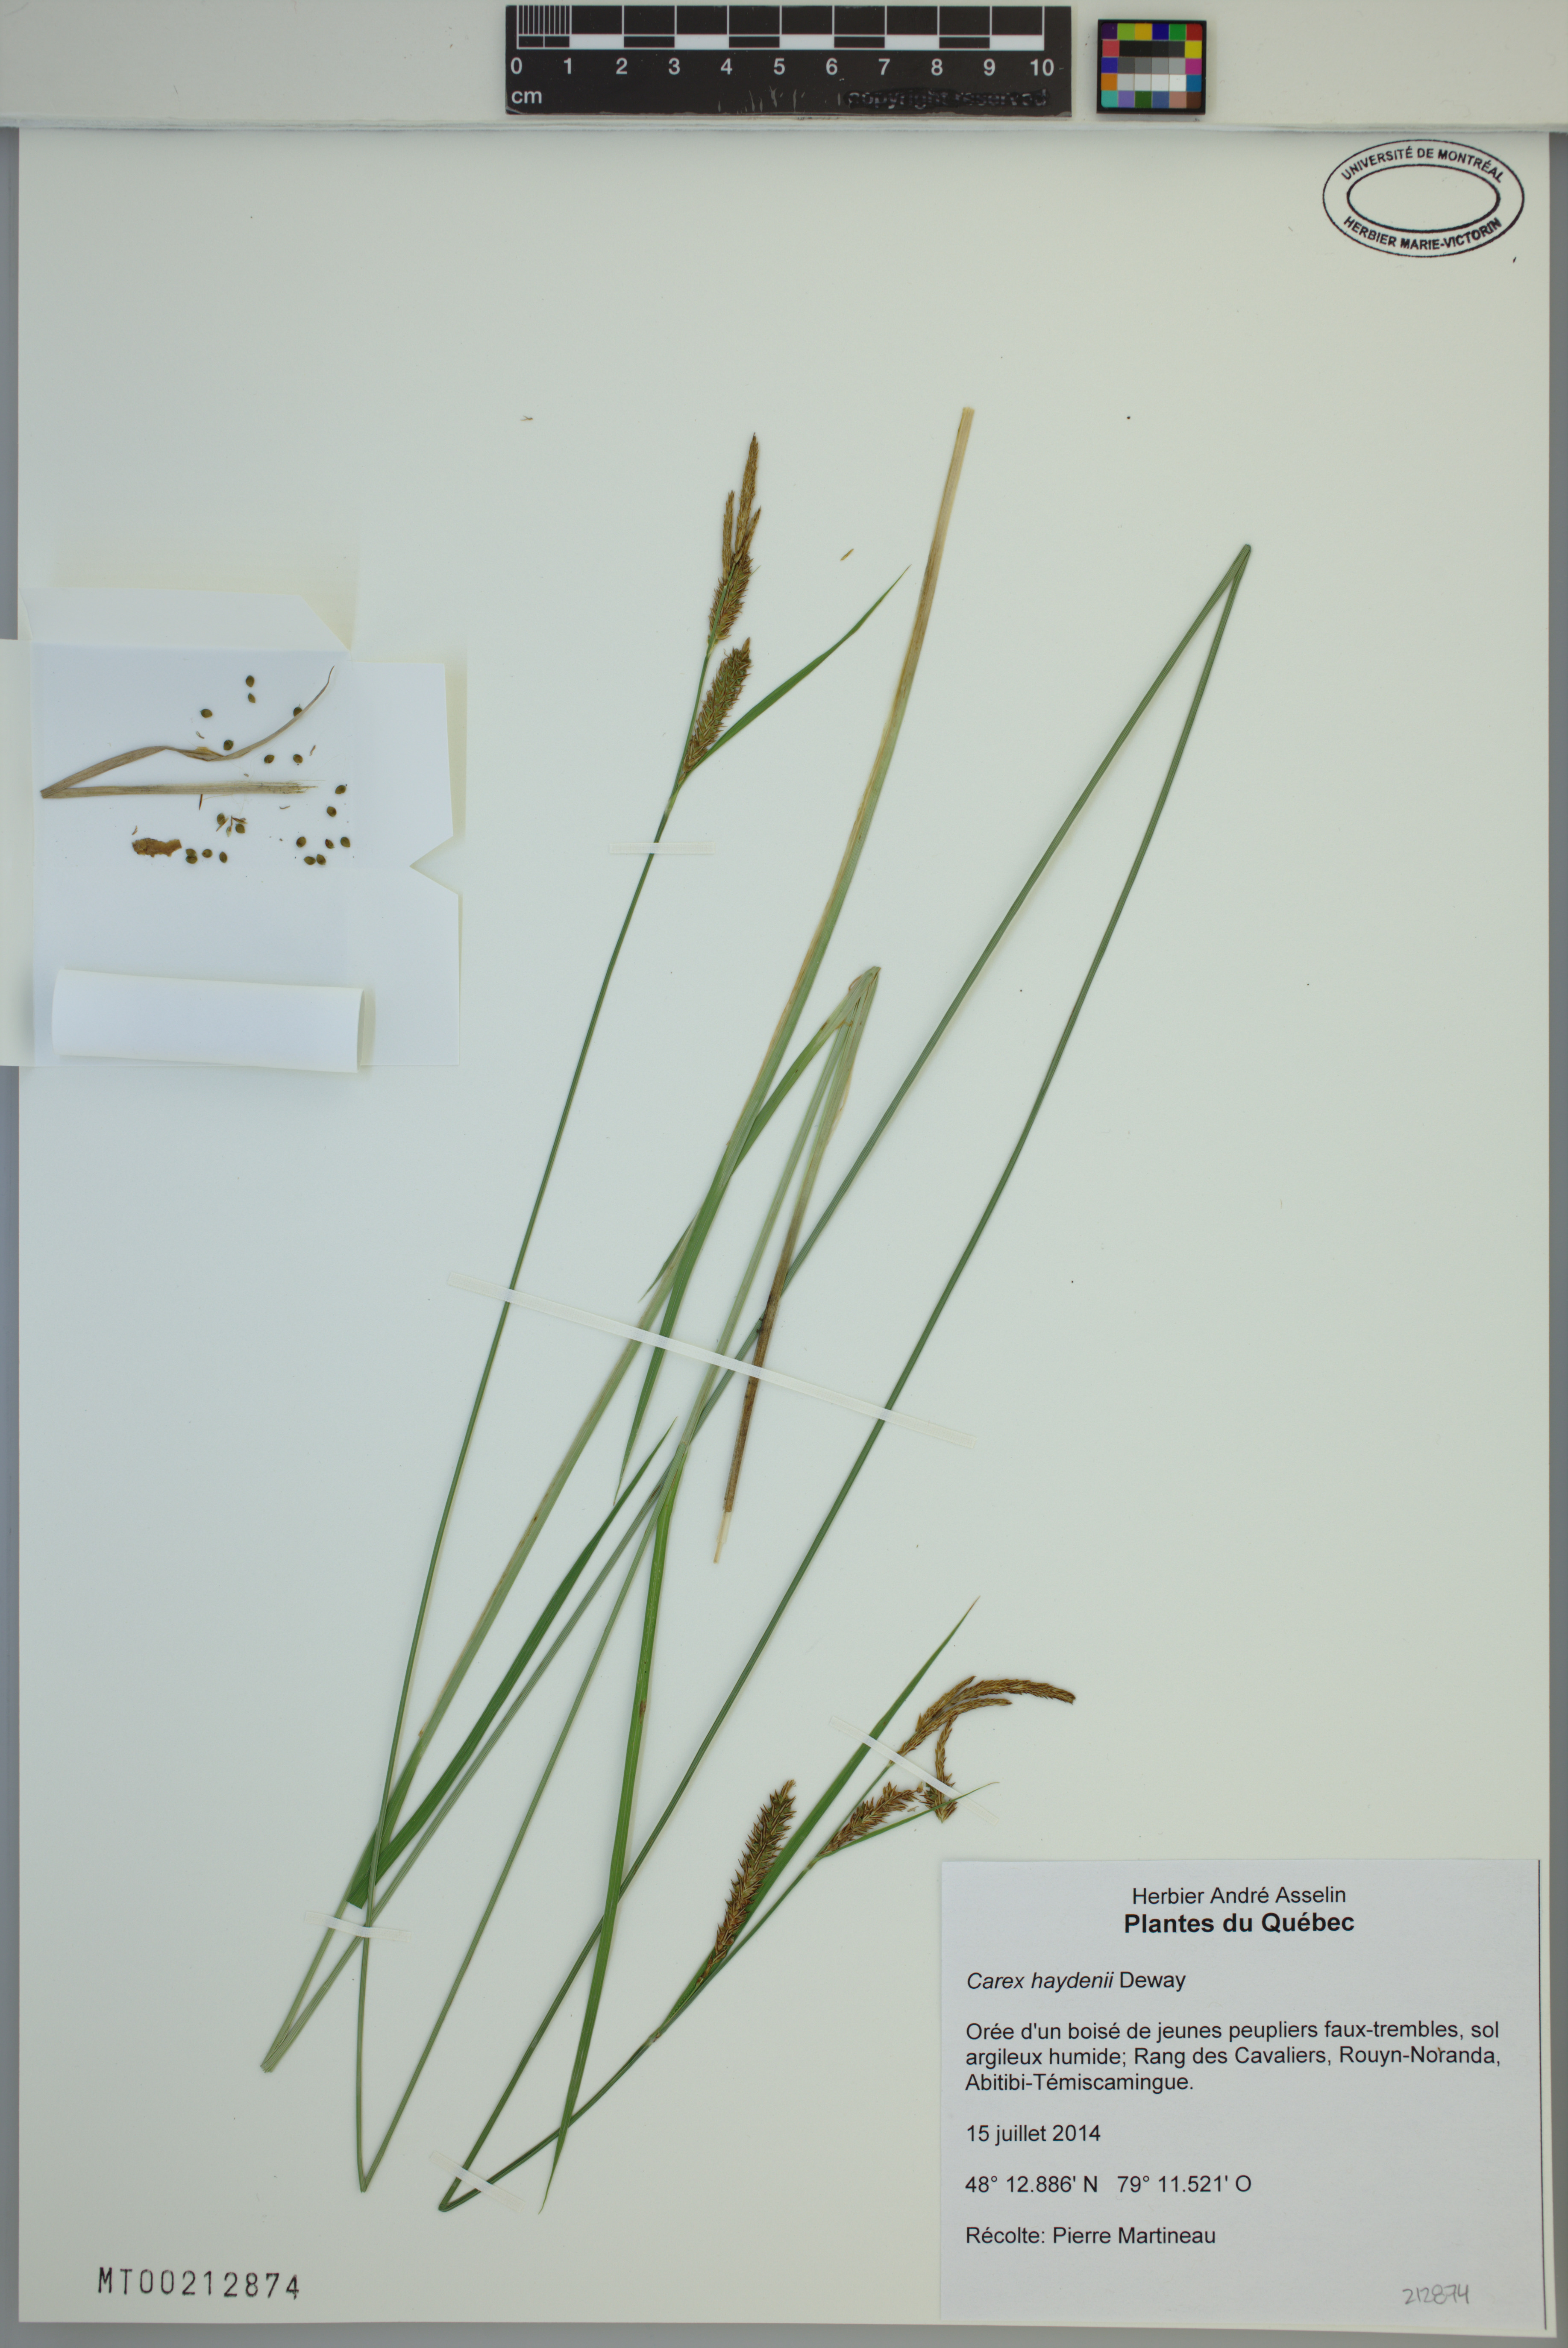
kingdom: Plantae
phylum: Tracheophyta
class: Liliopsida
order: Poales
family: Cyperaceae
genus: Carex
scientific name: Carex haydenii
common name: Hayden's sedge
